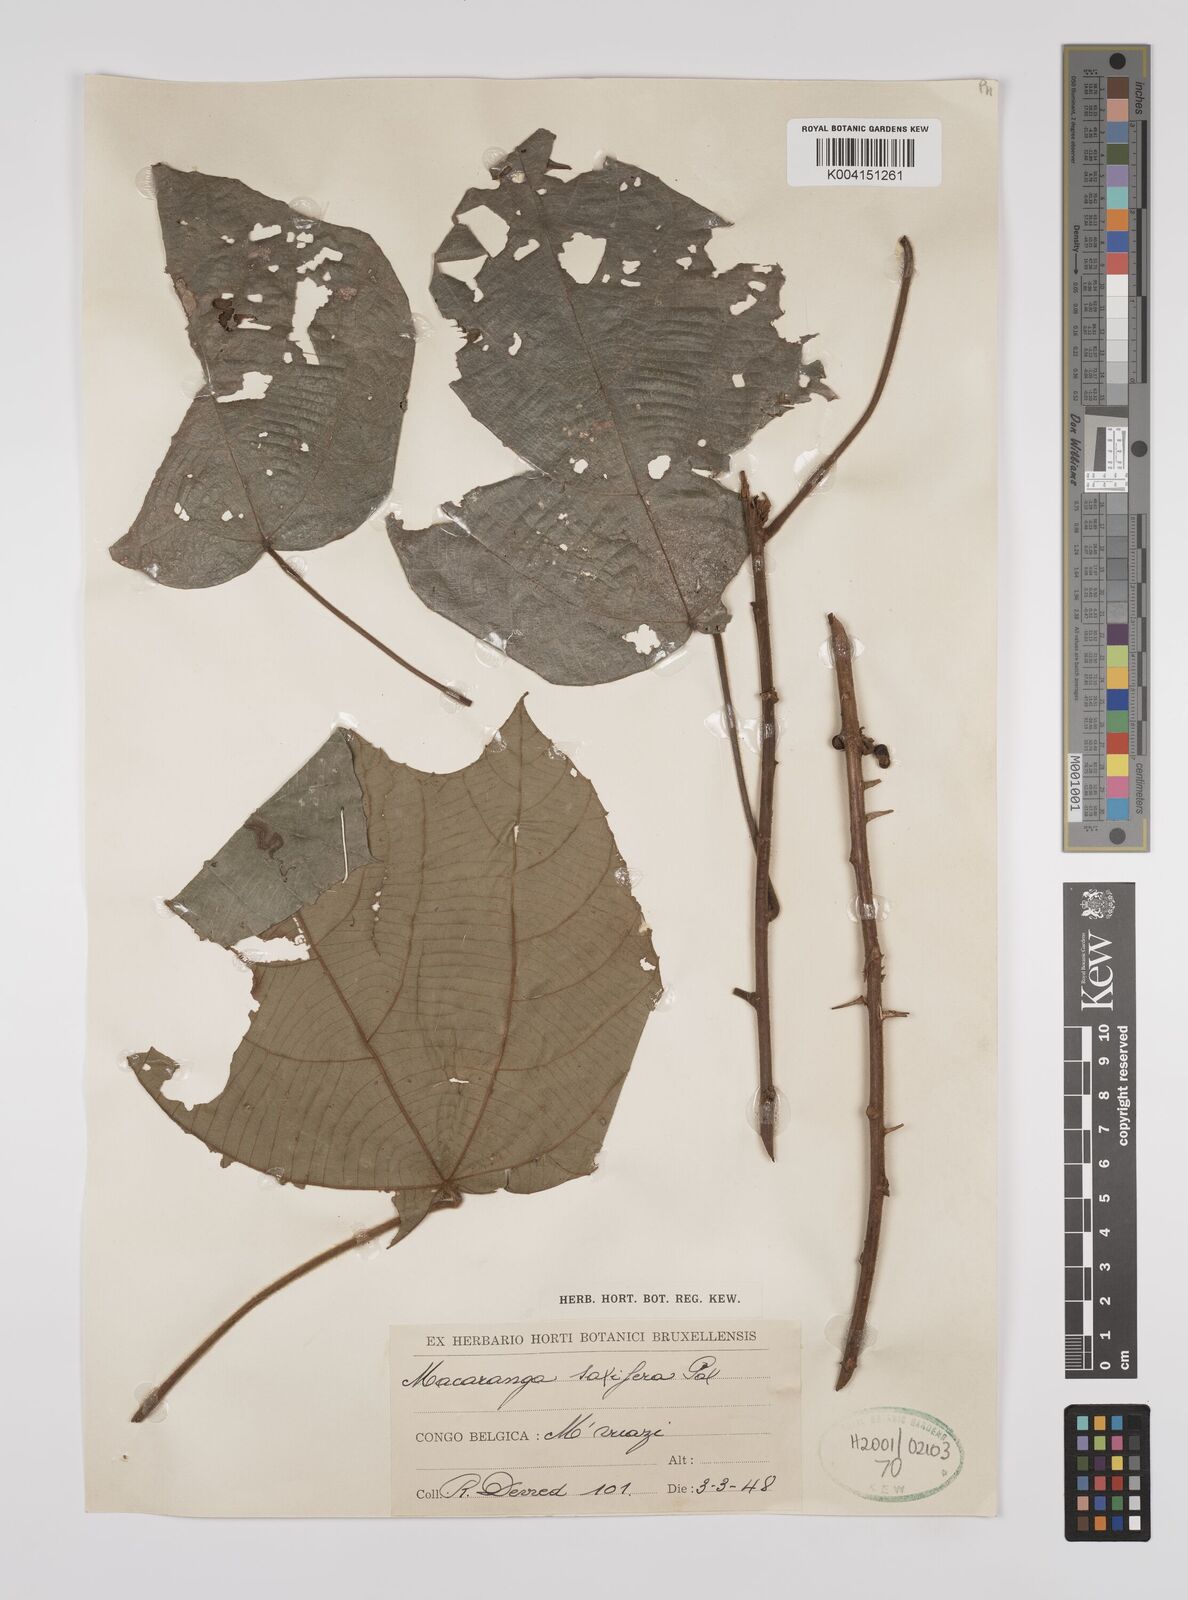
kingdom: Plantae
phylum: Tracheophyta
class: Magnoliopsida
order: Malpighiales
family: Euphorbiaceae
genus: Macaranga
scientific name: Macaranga saccifera
